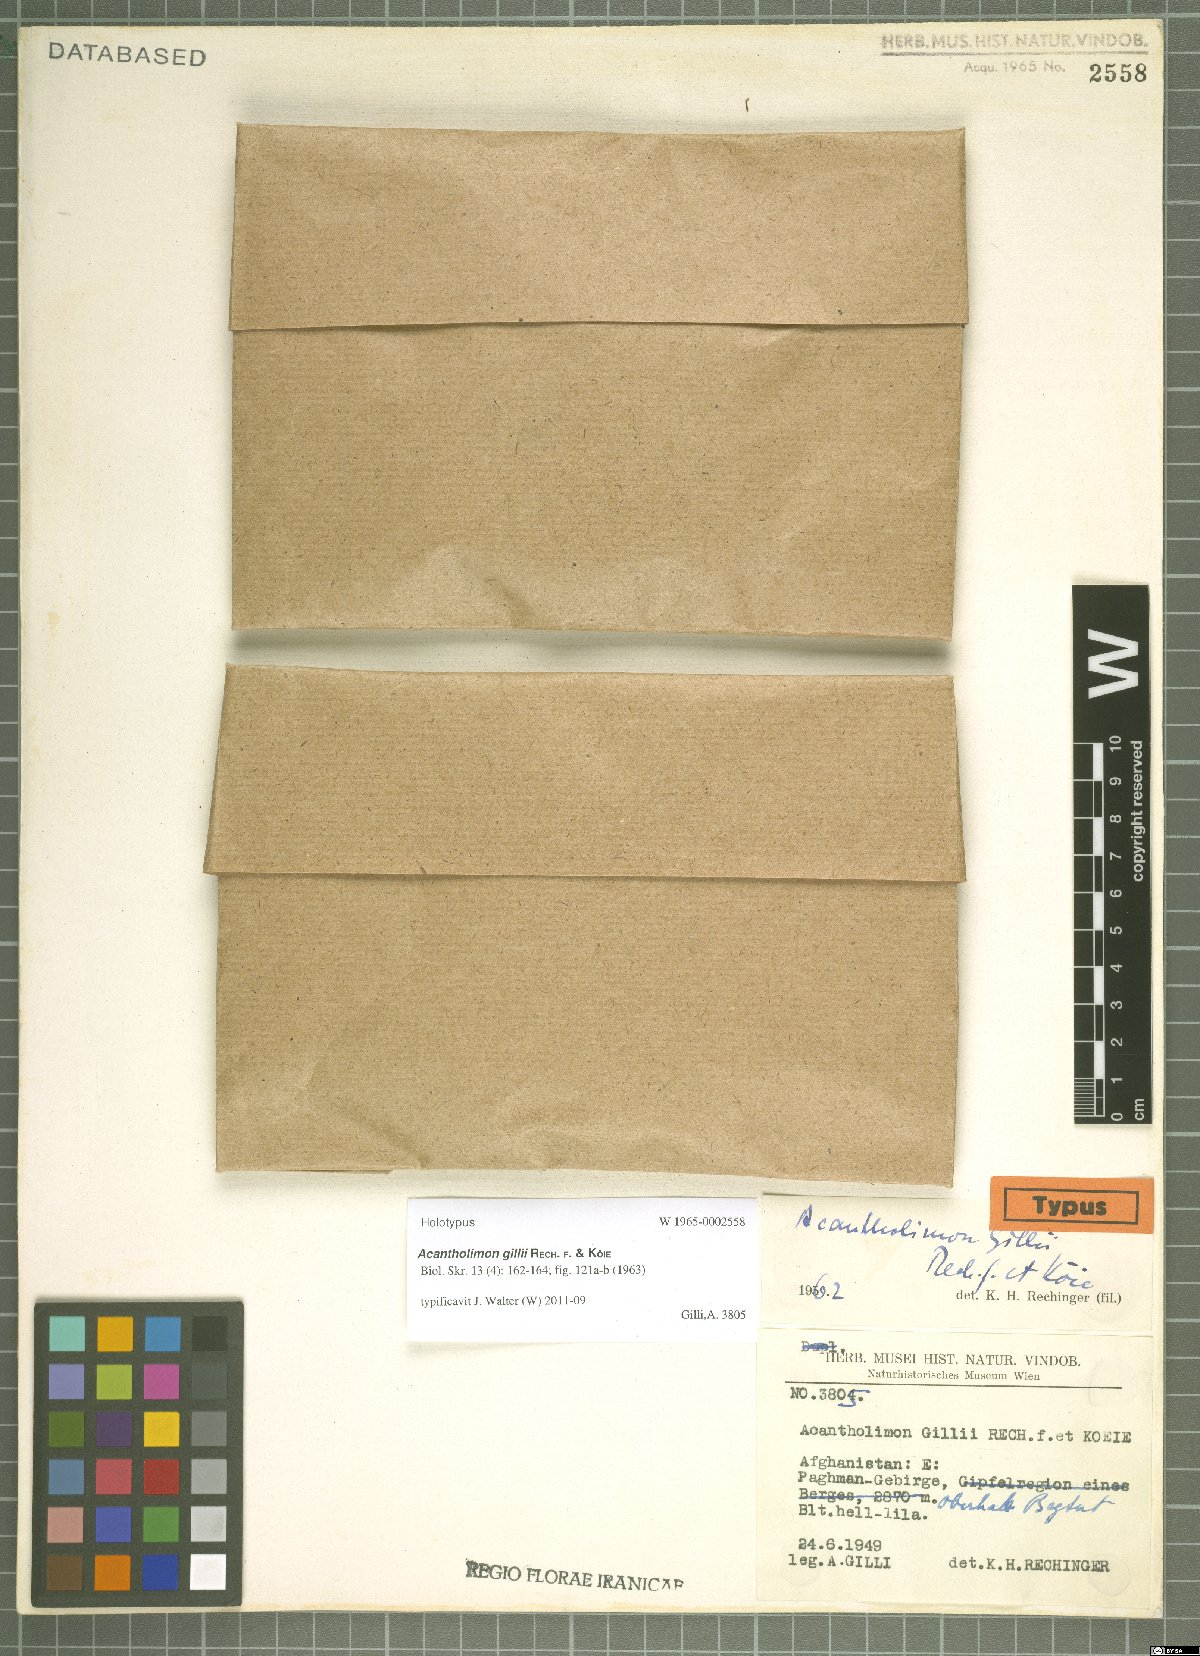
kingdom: Plantae
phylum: Tracheophyta
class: Magnoliopsida
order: Caryophyllales
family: Plumbaginaceae
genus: Acantholimon
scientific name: Acantholimon gillii
